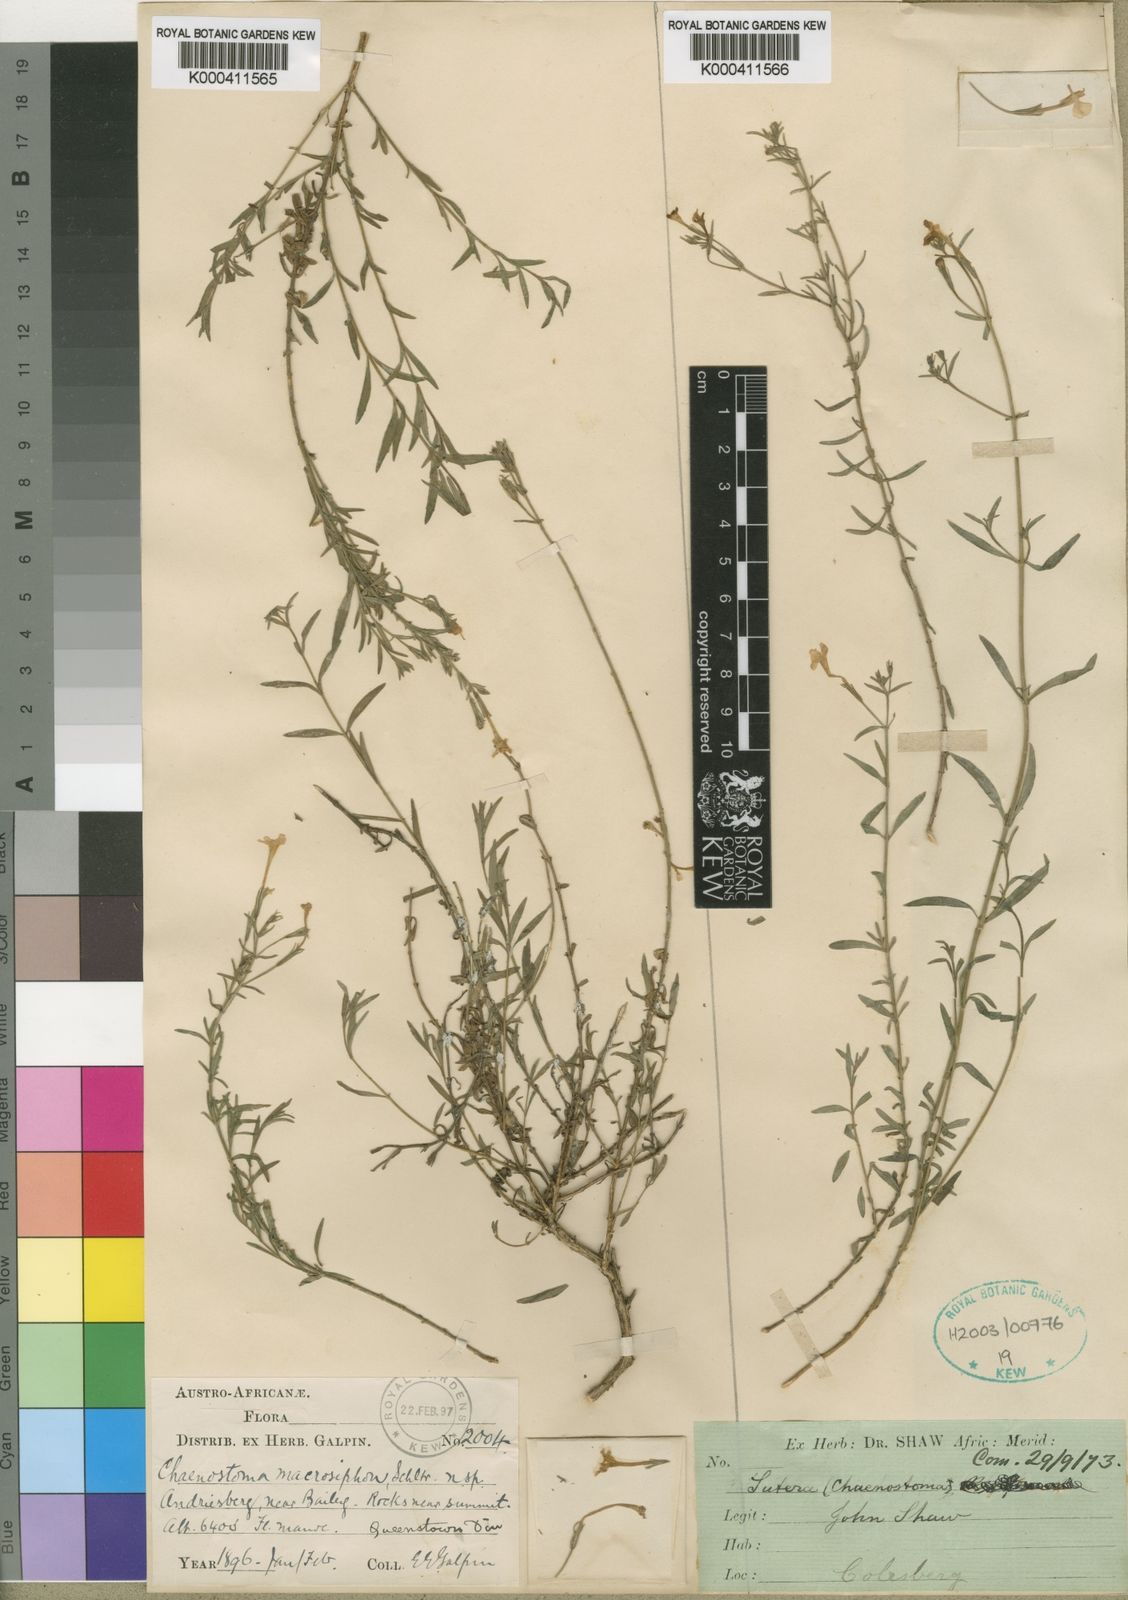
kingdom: Plantae
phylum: Tracheophyta
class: Magnoliopsida
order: Lamiales
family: Scrophulariaceae
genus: Chaenostoma
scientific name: Chaenostoma archeri
